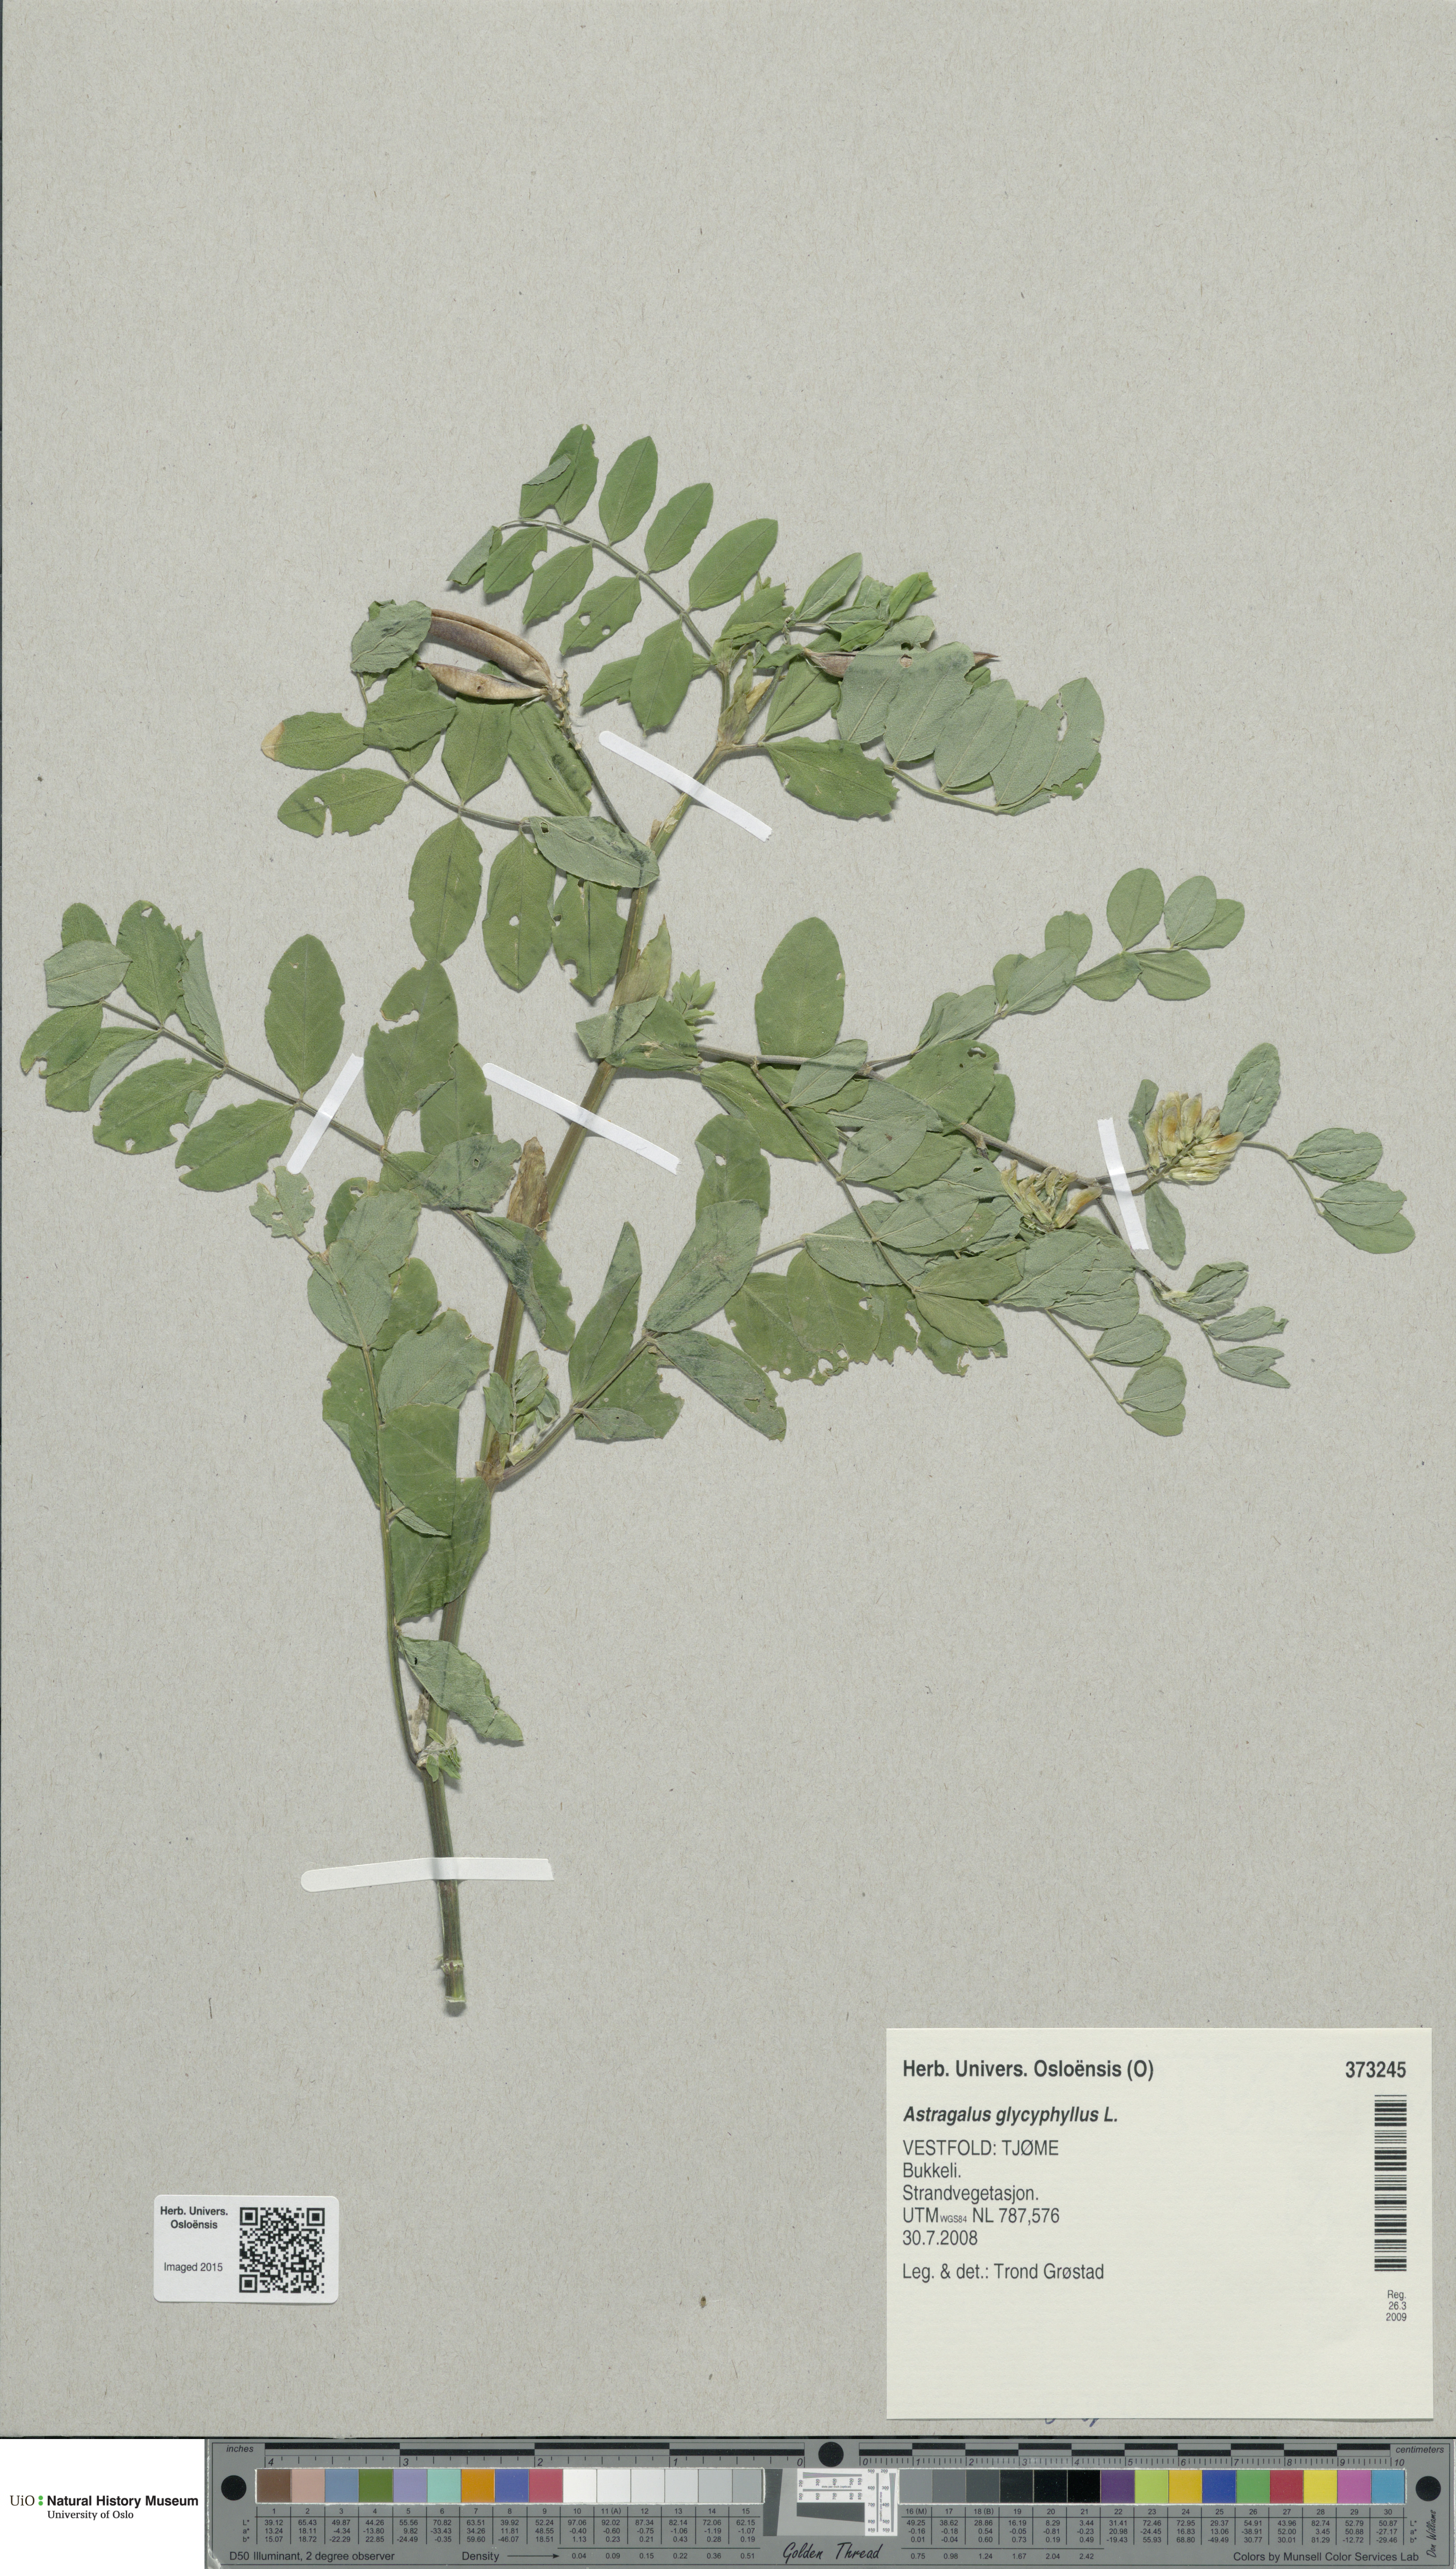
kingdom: Plantae
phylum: Tracheophyta
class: Magnoliopsida
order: Fabales
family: Fabaceae
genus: Astragalus
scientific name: Astragalus glycyphyllos
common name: Wild liquorice
